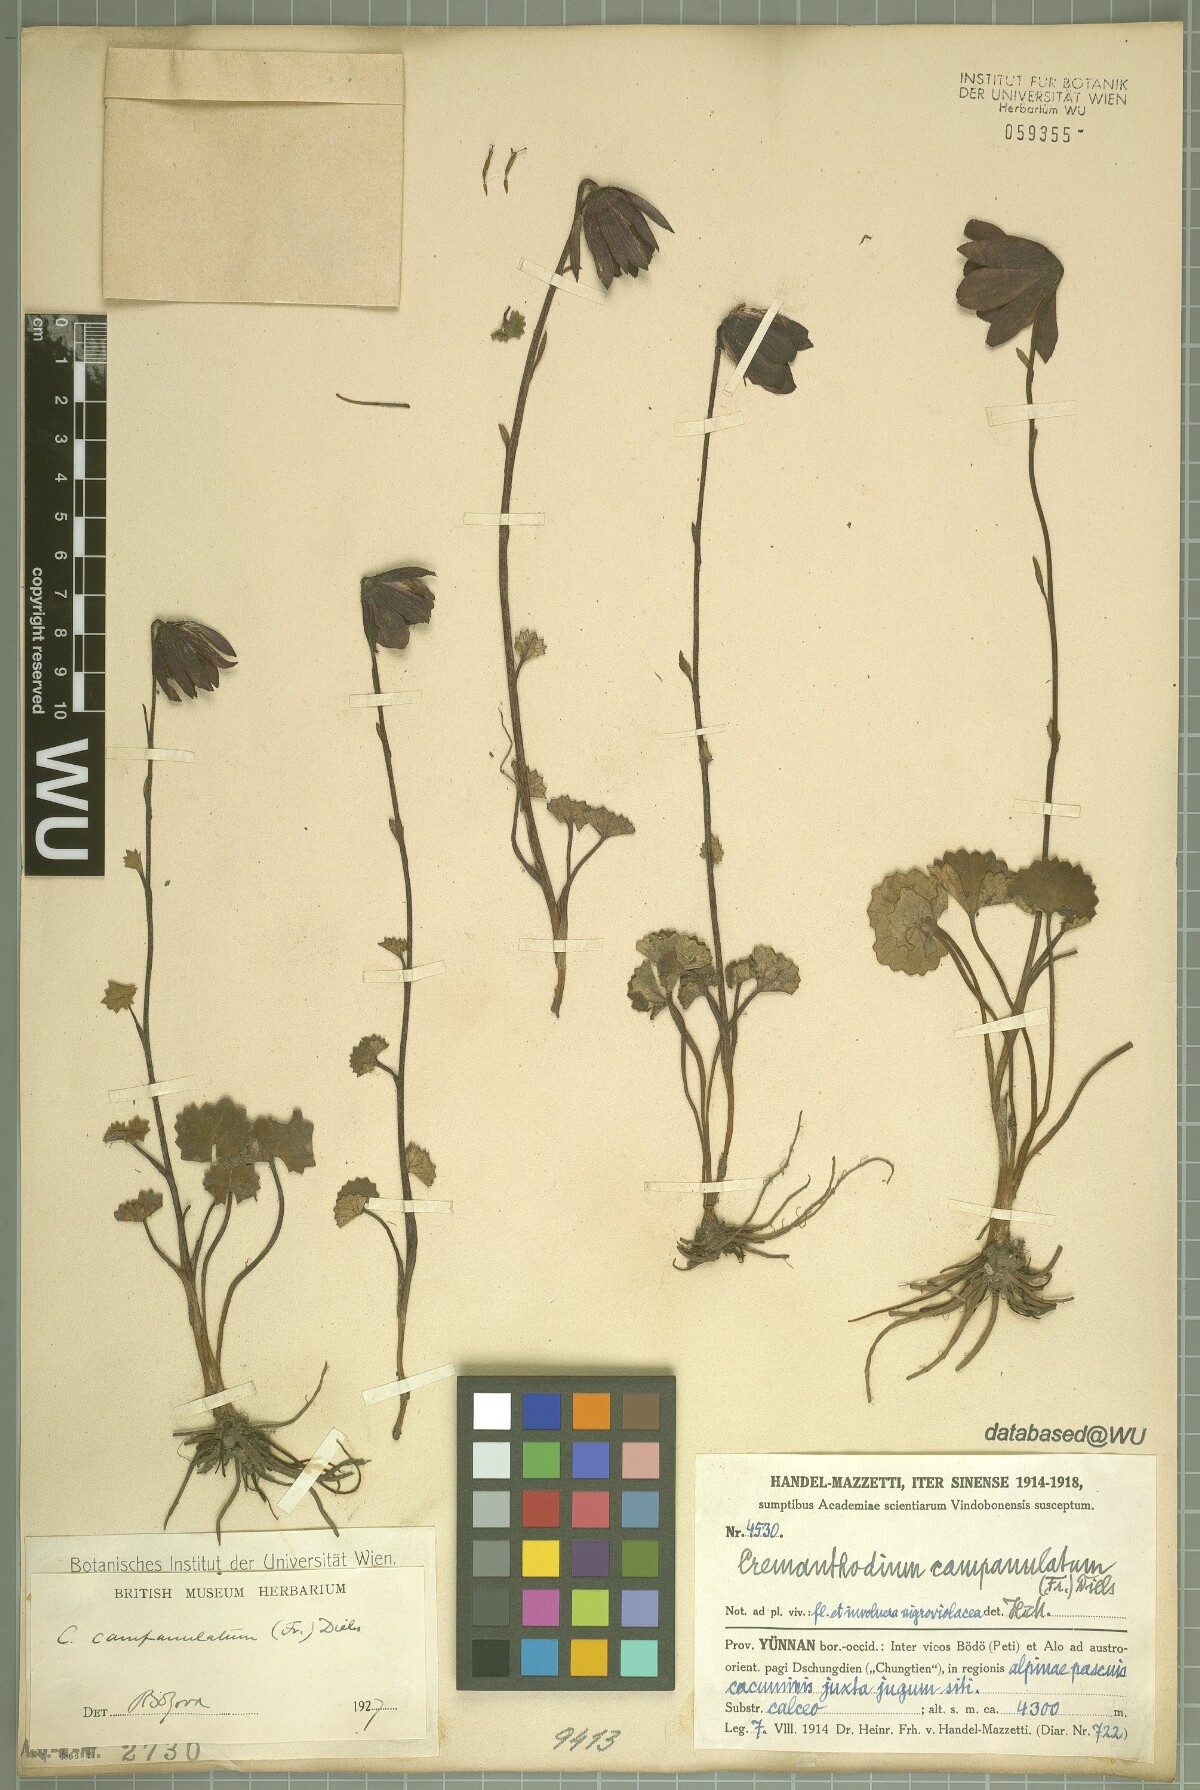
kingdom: Plantae
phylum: Tracheophyta
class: Magnoliopsida
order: Asterales
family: Asteraceae
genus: Cremanthodium
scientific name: Cremanthodium campanulatum
